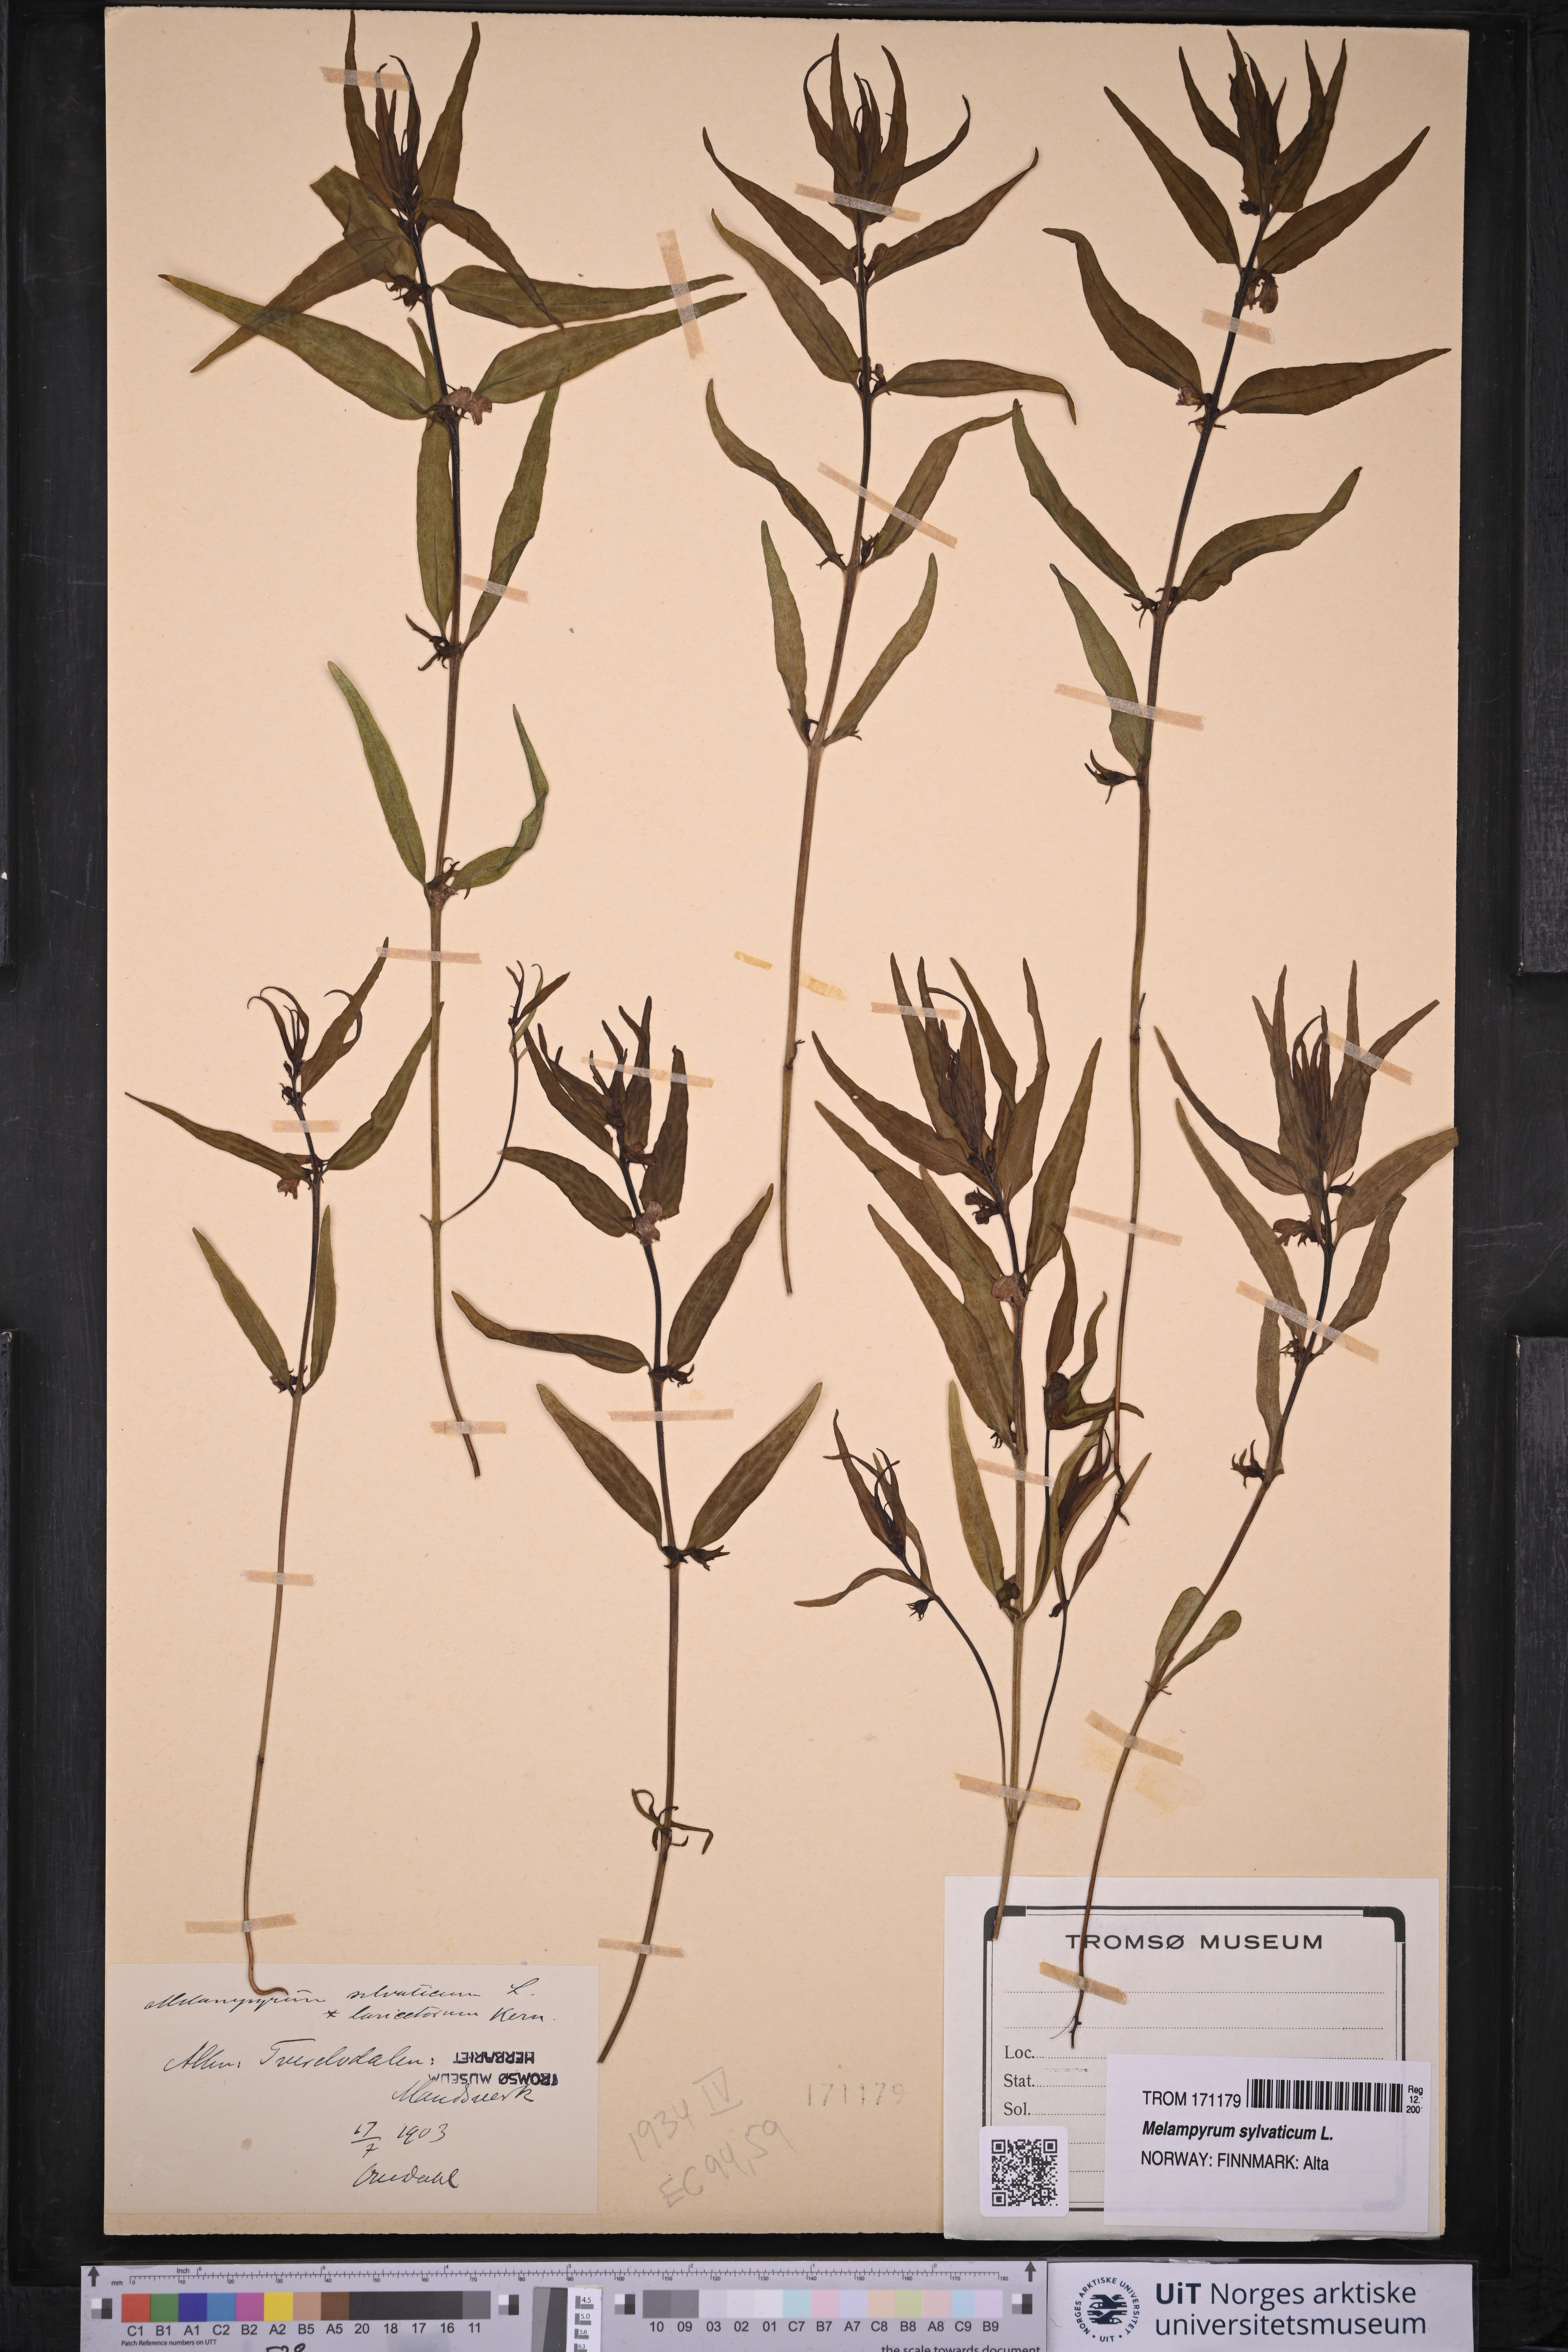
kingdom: Plantae
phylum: Tracheophyta
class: Magnoliopsida
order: Lamiales
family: Orobanchaceae
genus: Melampyrum
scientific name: Melampyrum sylvaticum
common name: Small cow-wheat
